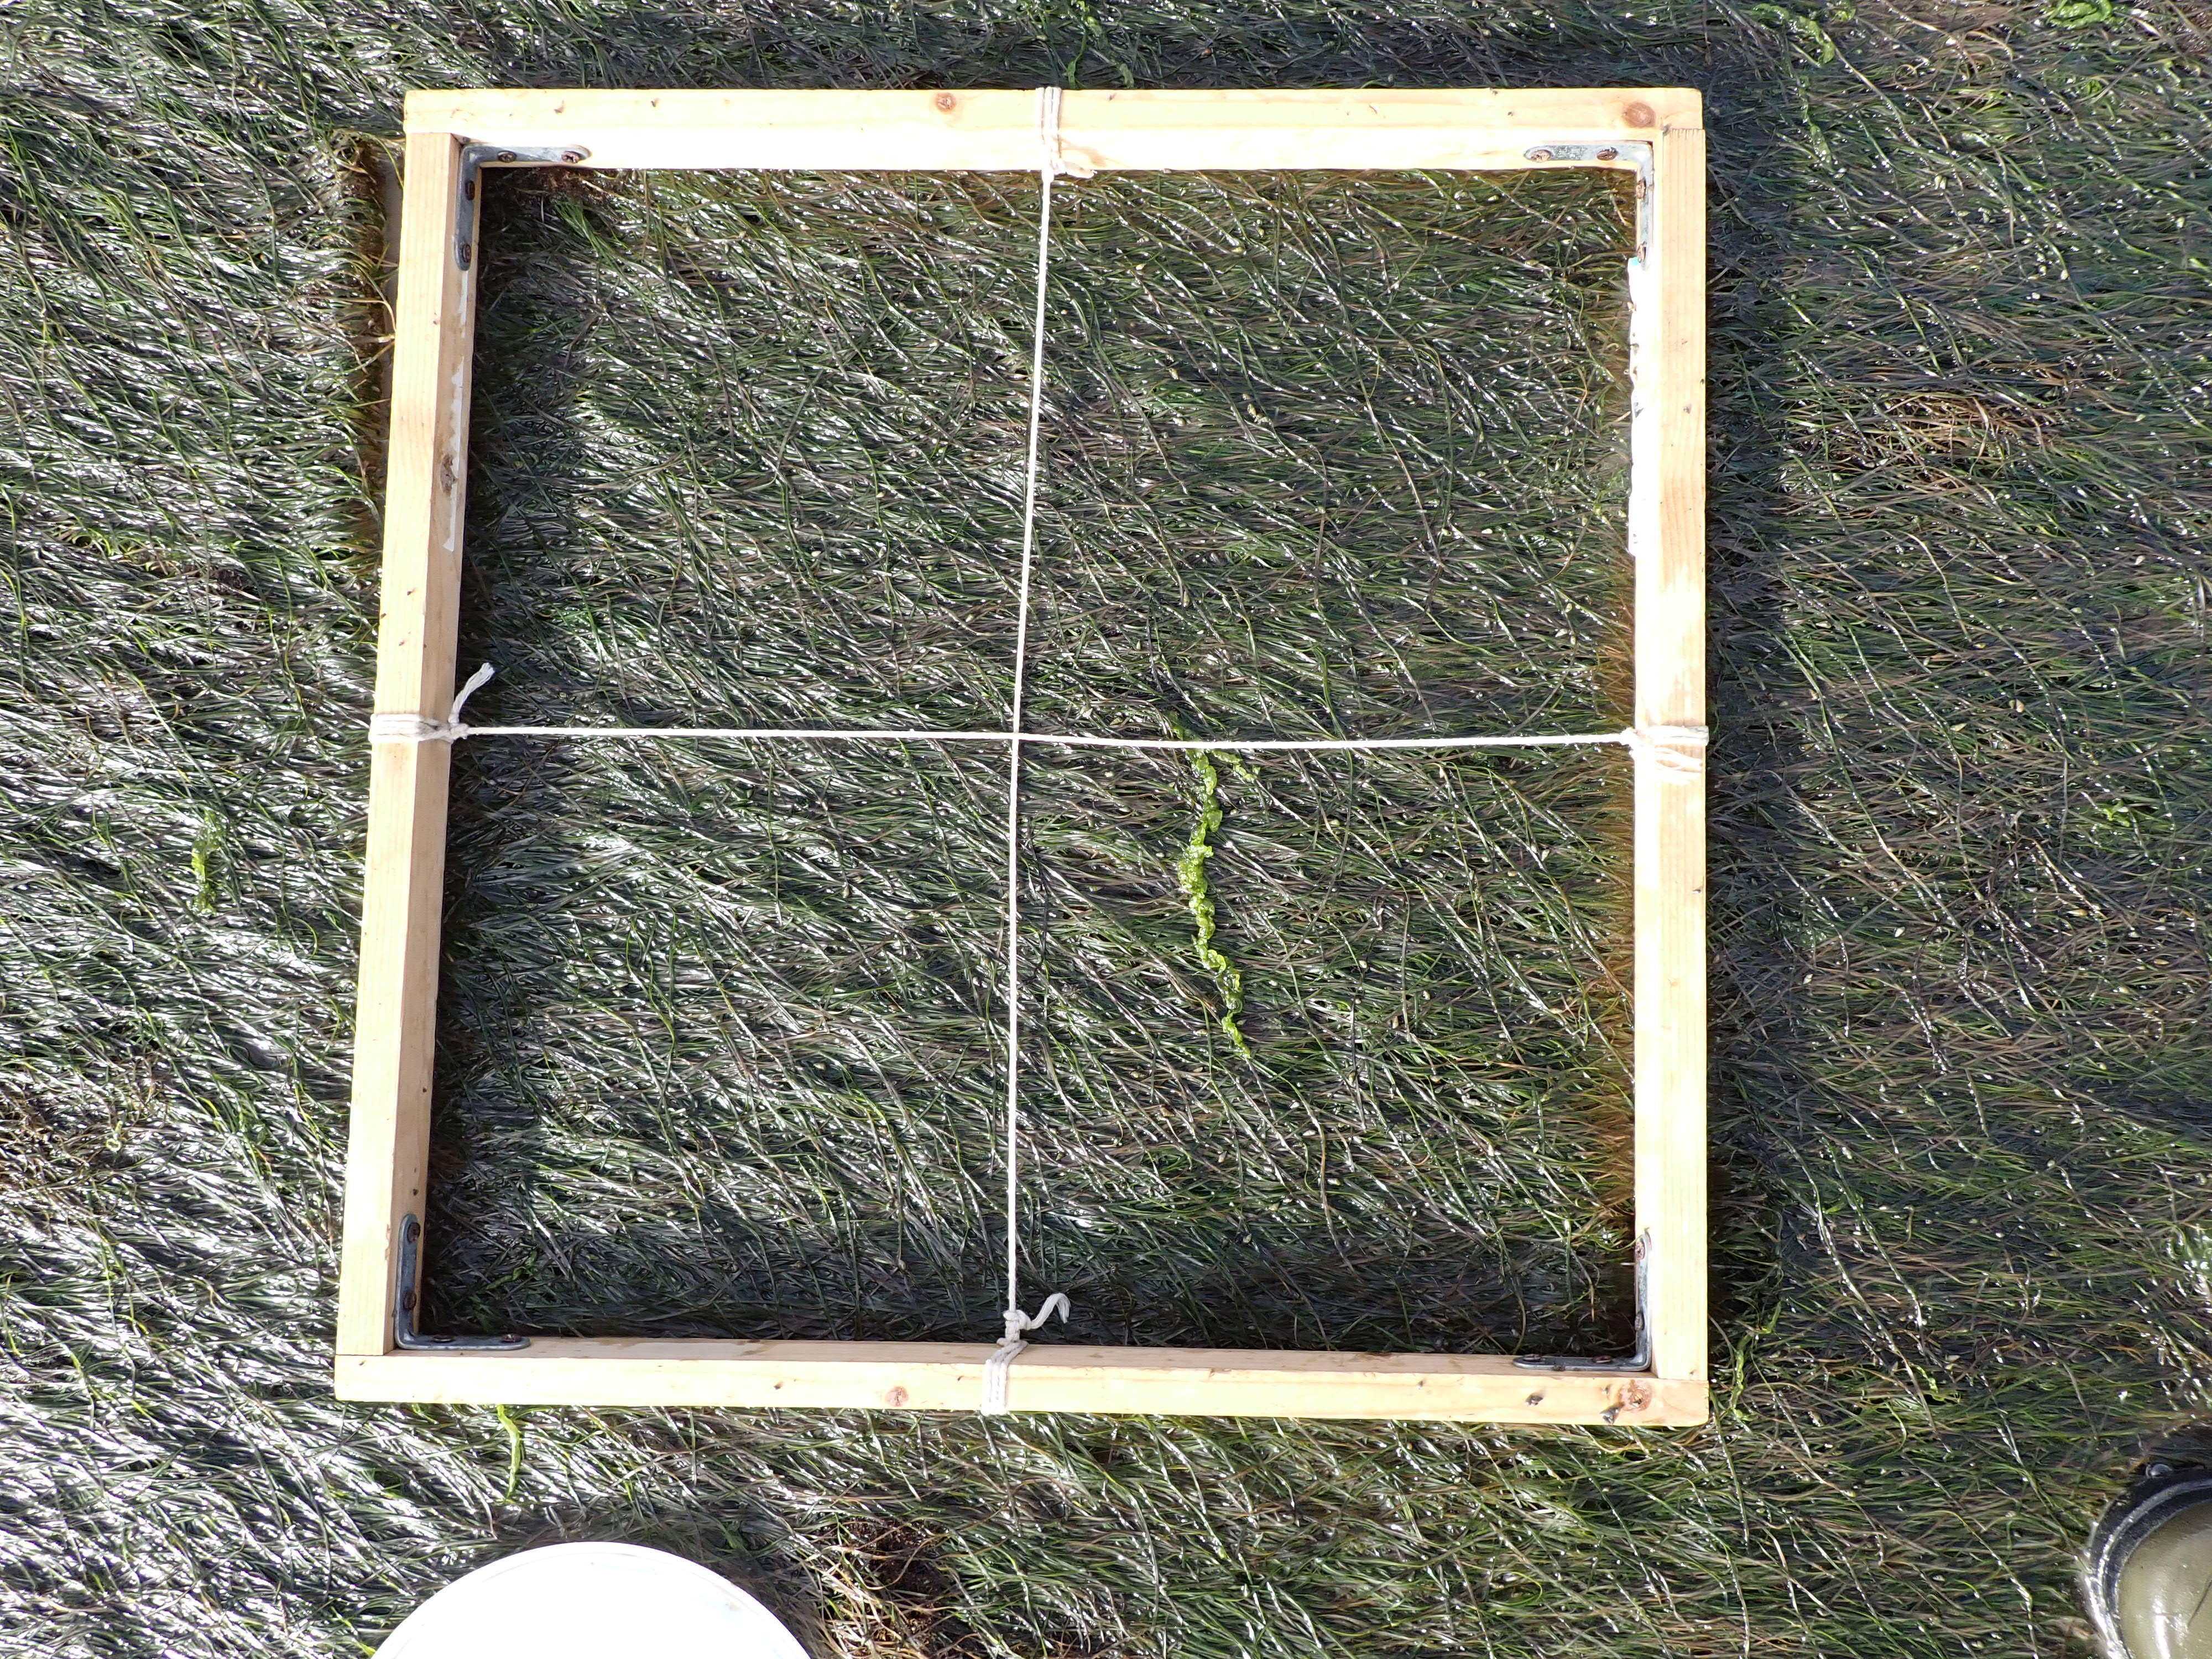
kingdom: Plantae
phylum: Tracheophyta
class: Liliopsida
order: Alismatales
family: Zosteraceae
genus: Zostera
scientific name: Zostera noltii
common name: Dwarf eelgrass
